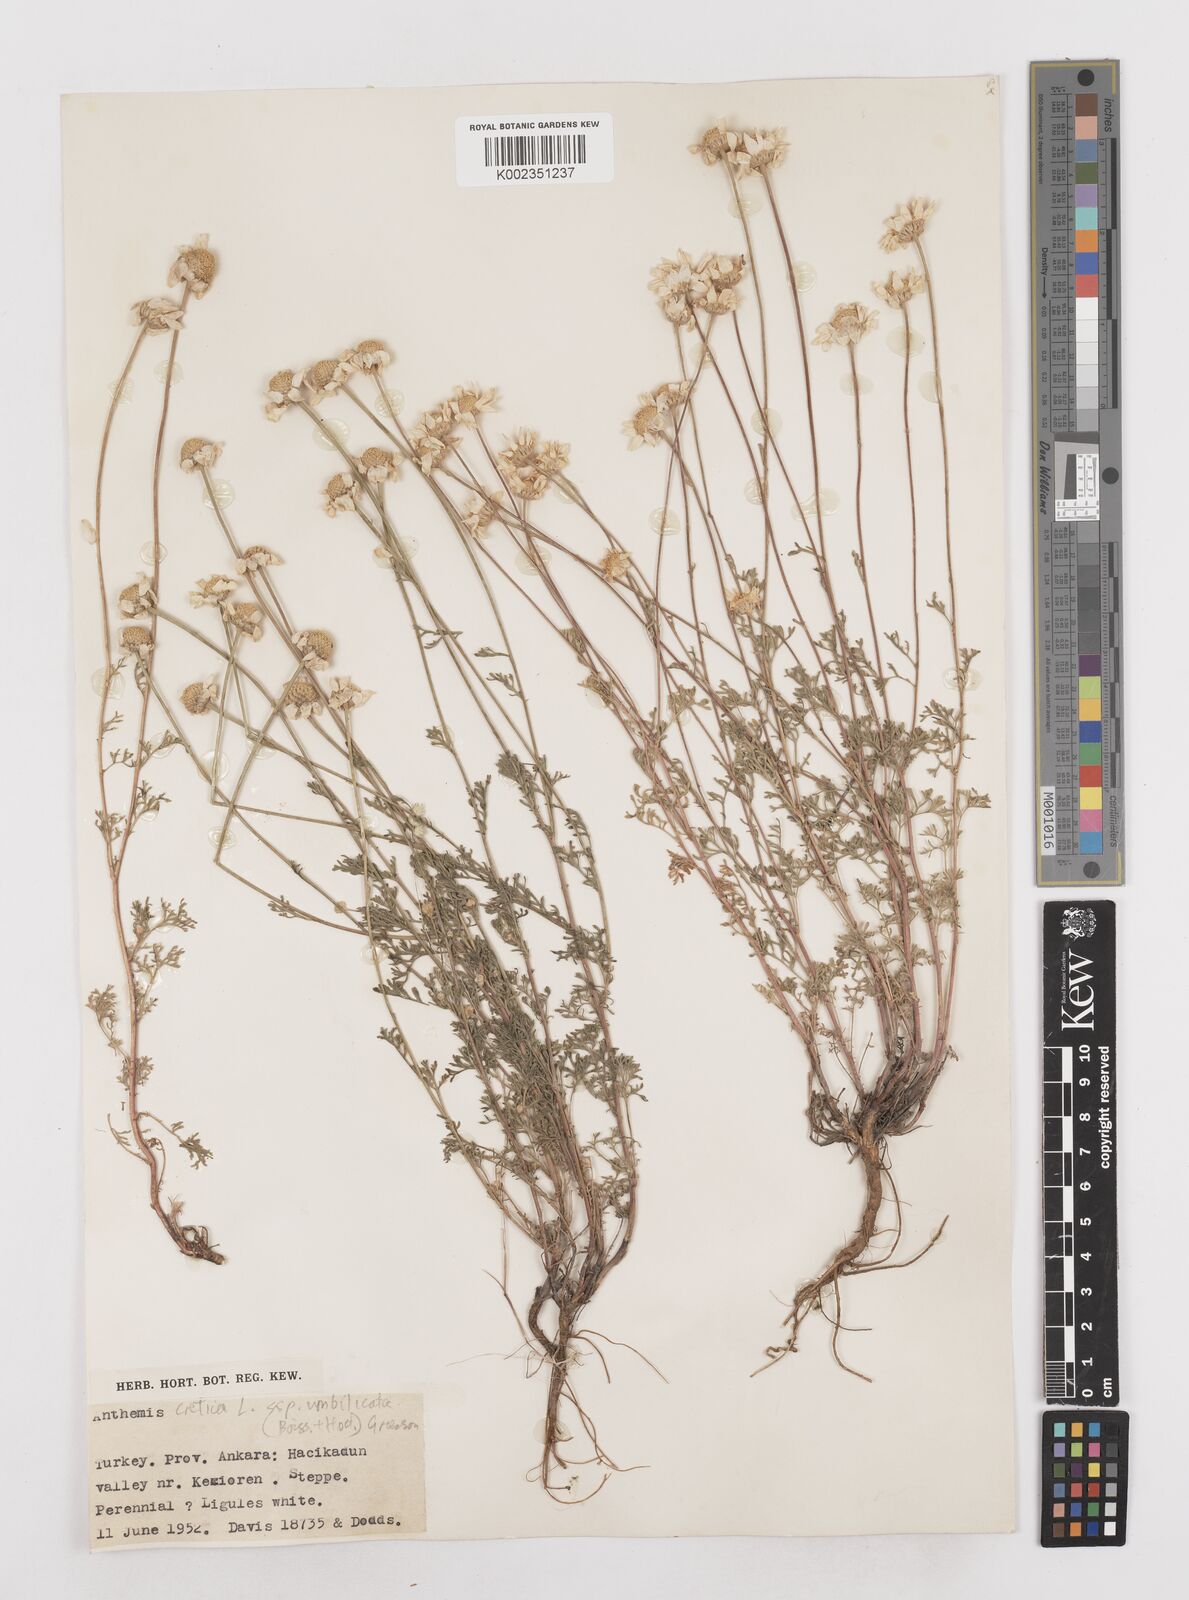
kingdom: Plantae
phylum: Tracheophyta
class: Magnoliopsida
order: Asterales
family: Asteraceae
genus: Anthemis
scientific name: Anthemis cretica
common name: Mountain dog-daisy
